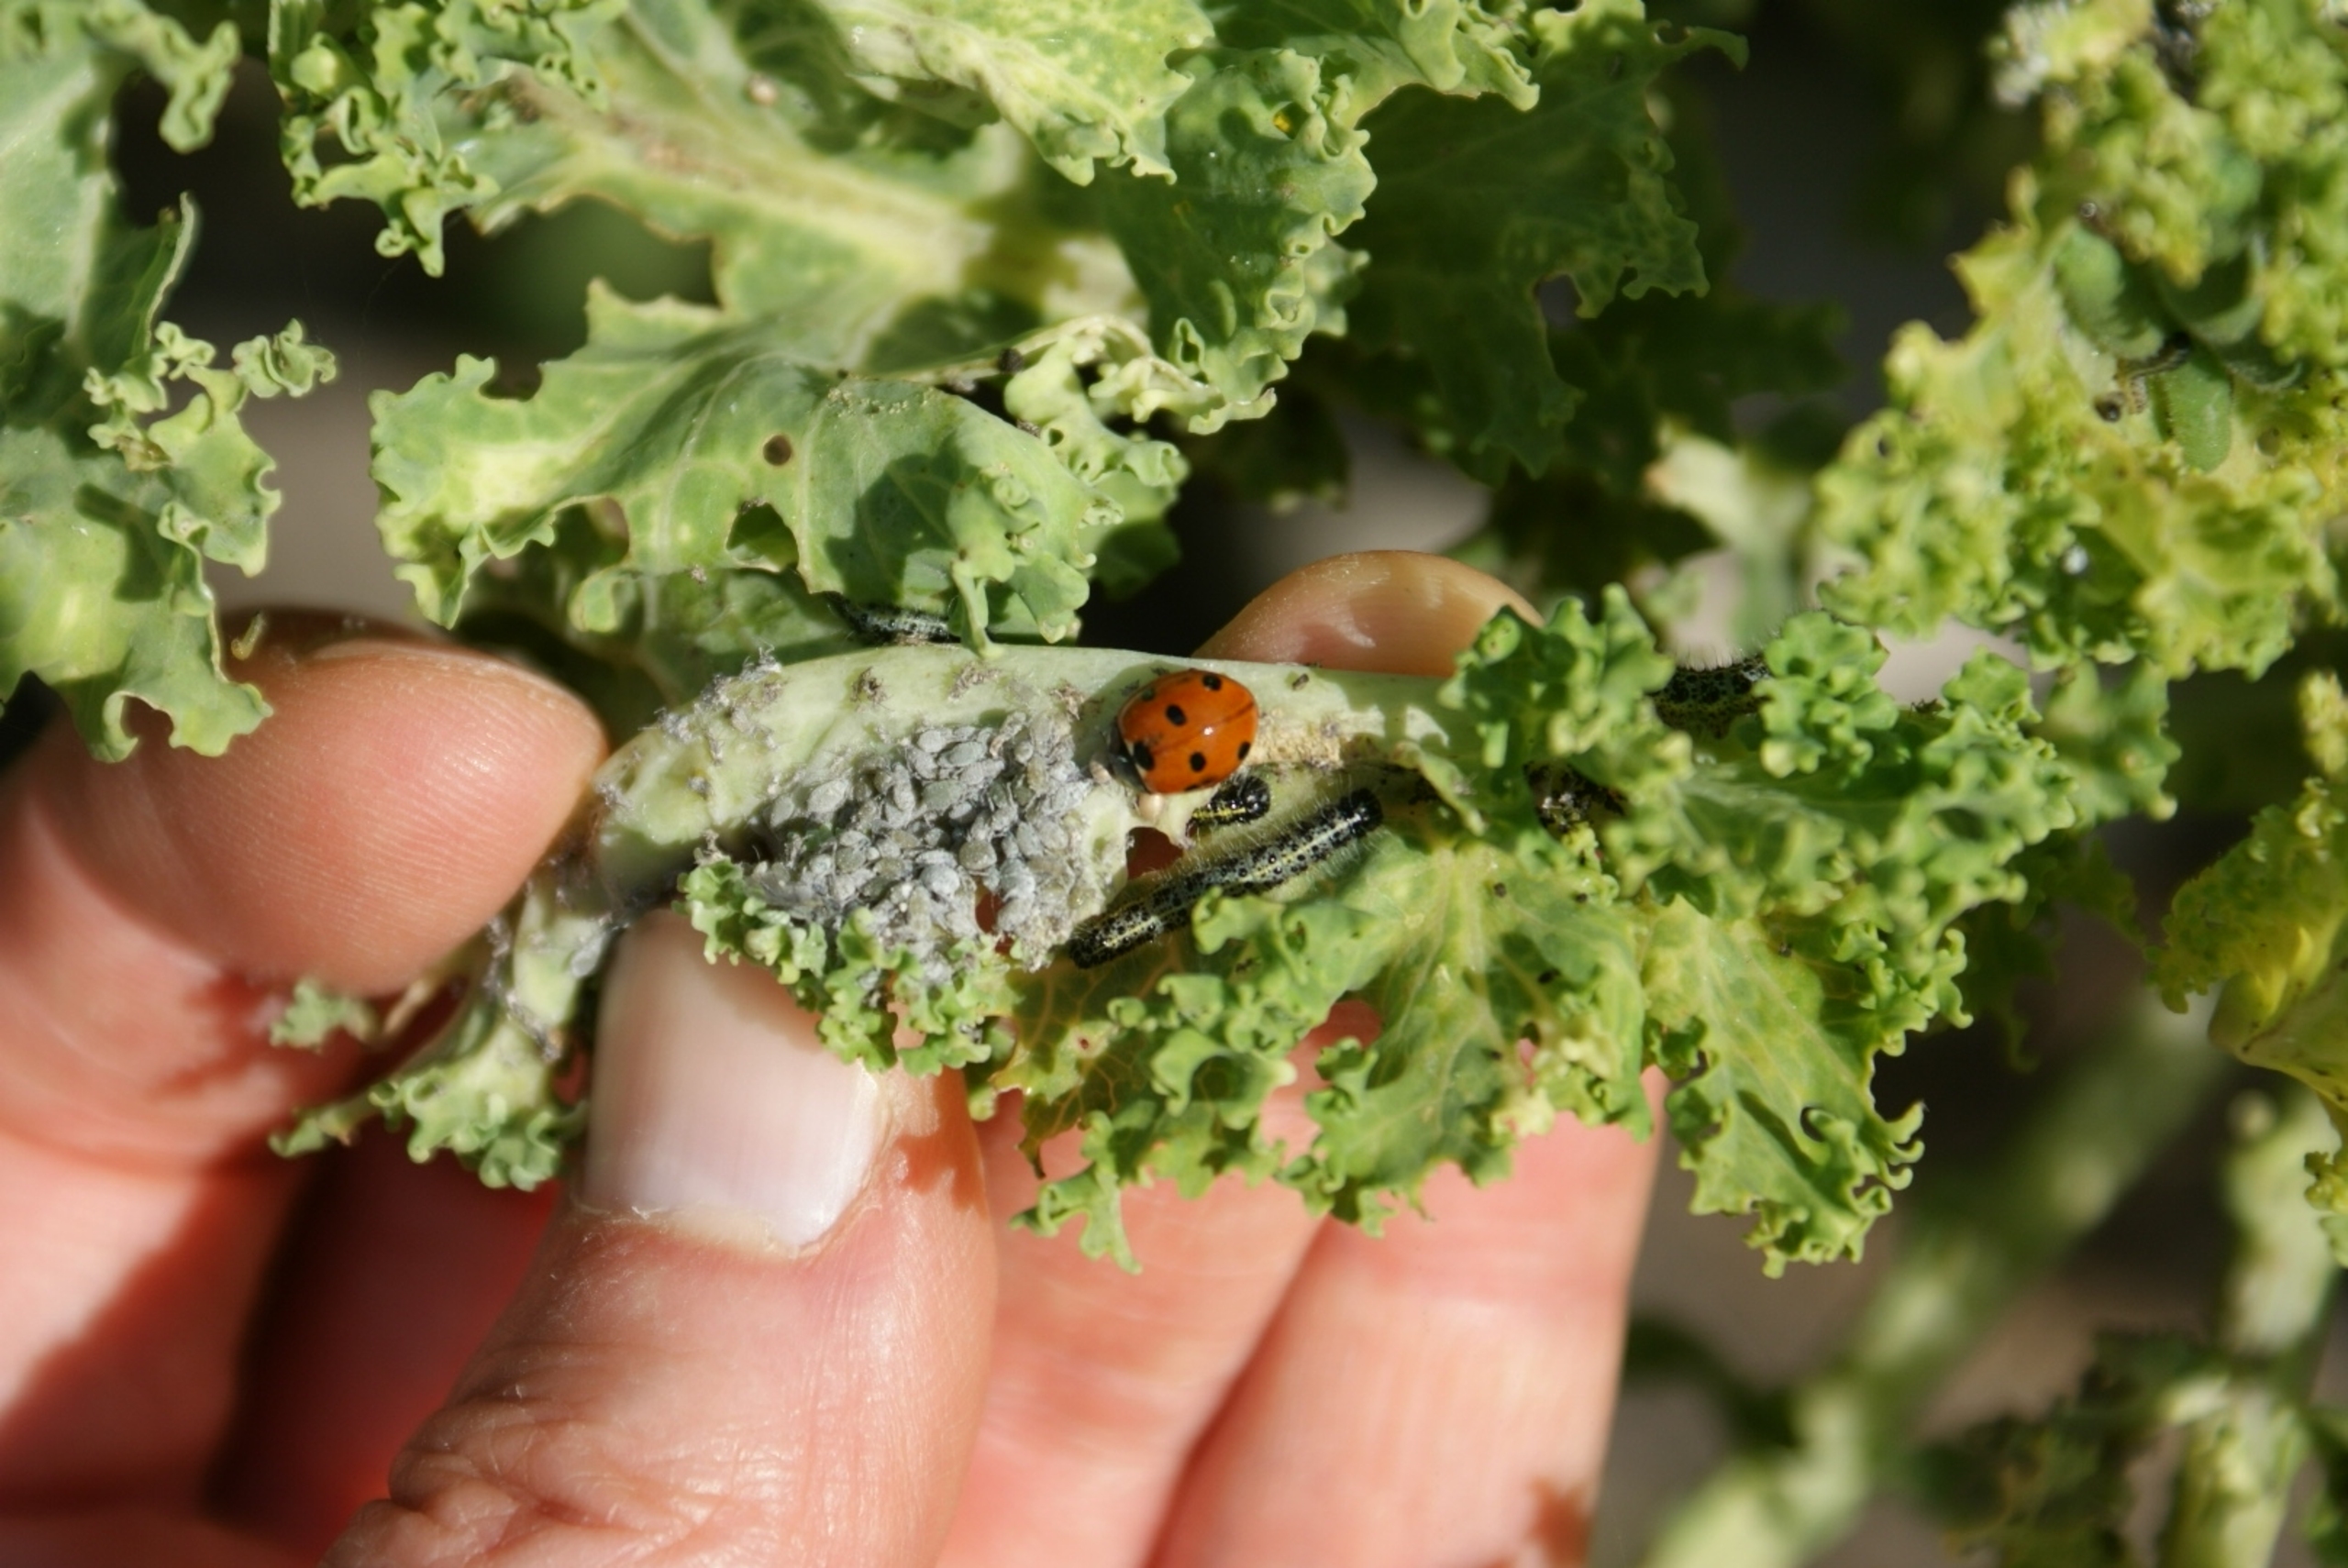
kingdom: Animalia
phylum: Arthropoda
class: Insecta
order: Coleoptera
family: Coccinellidae
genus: Coccinella
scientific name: Coccinella septempunctata
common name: Syvplettet mariehøne
